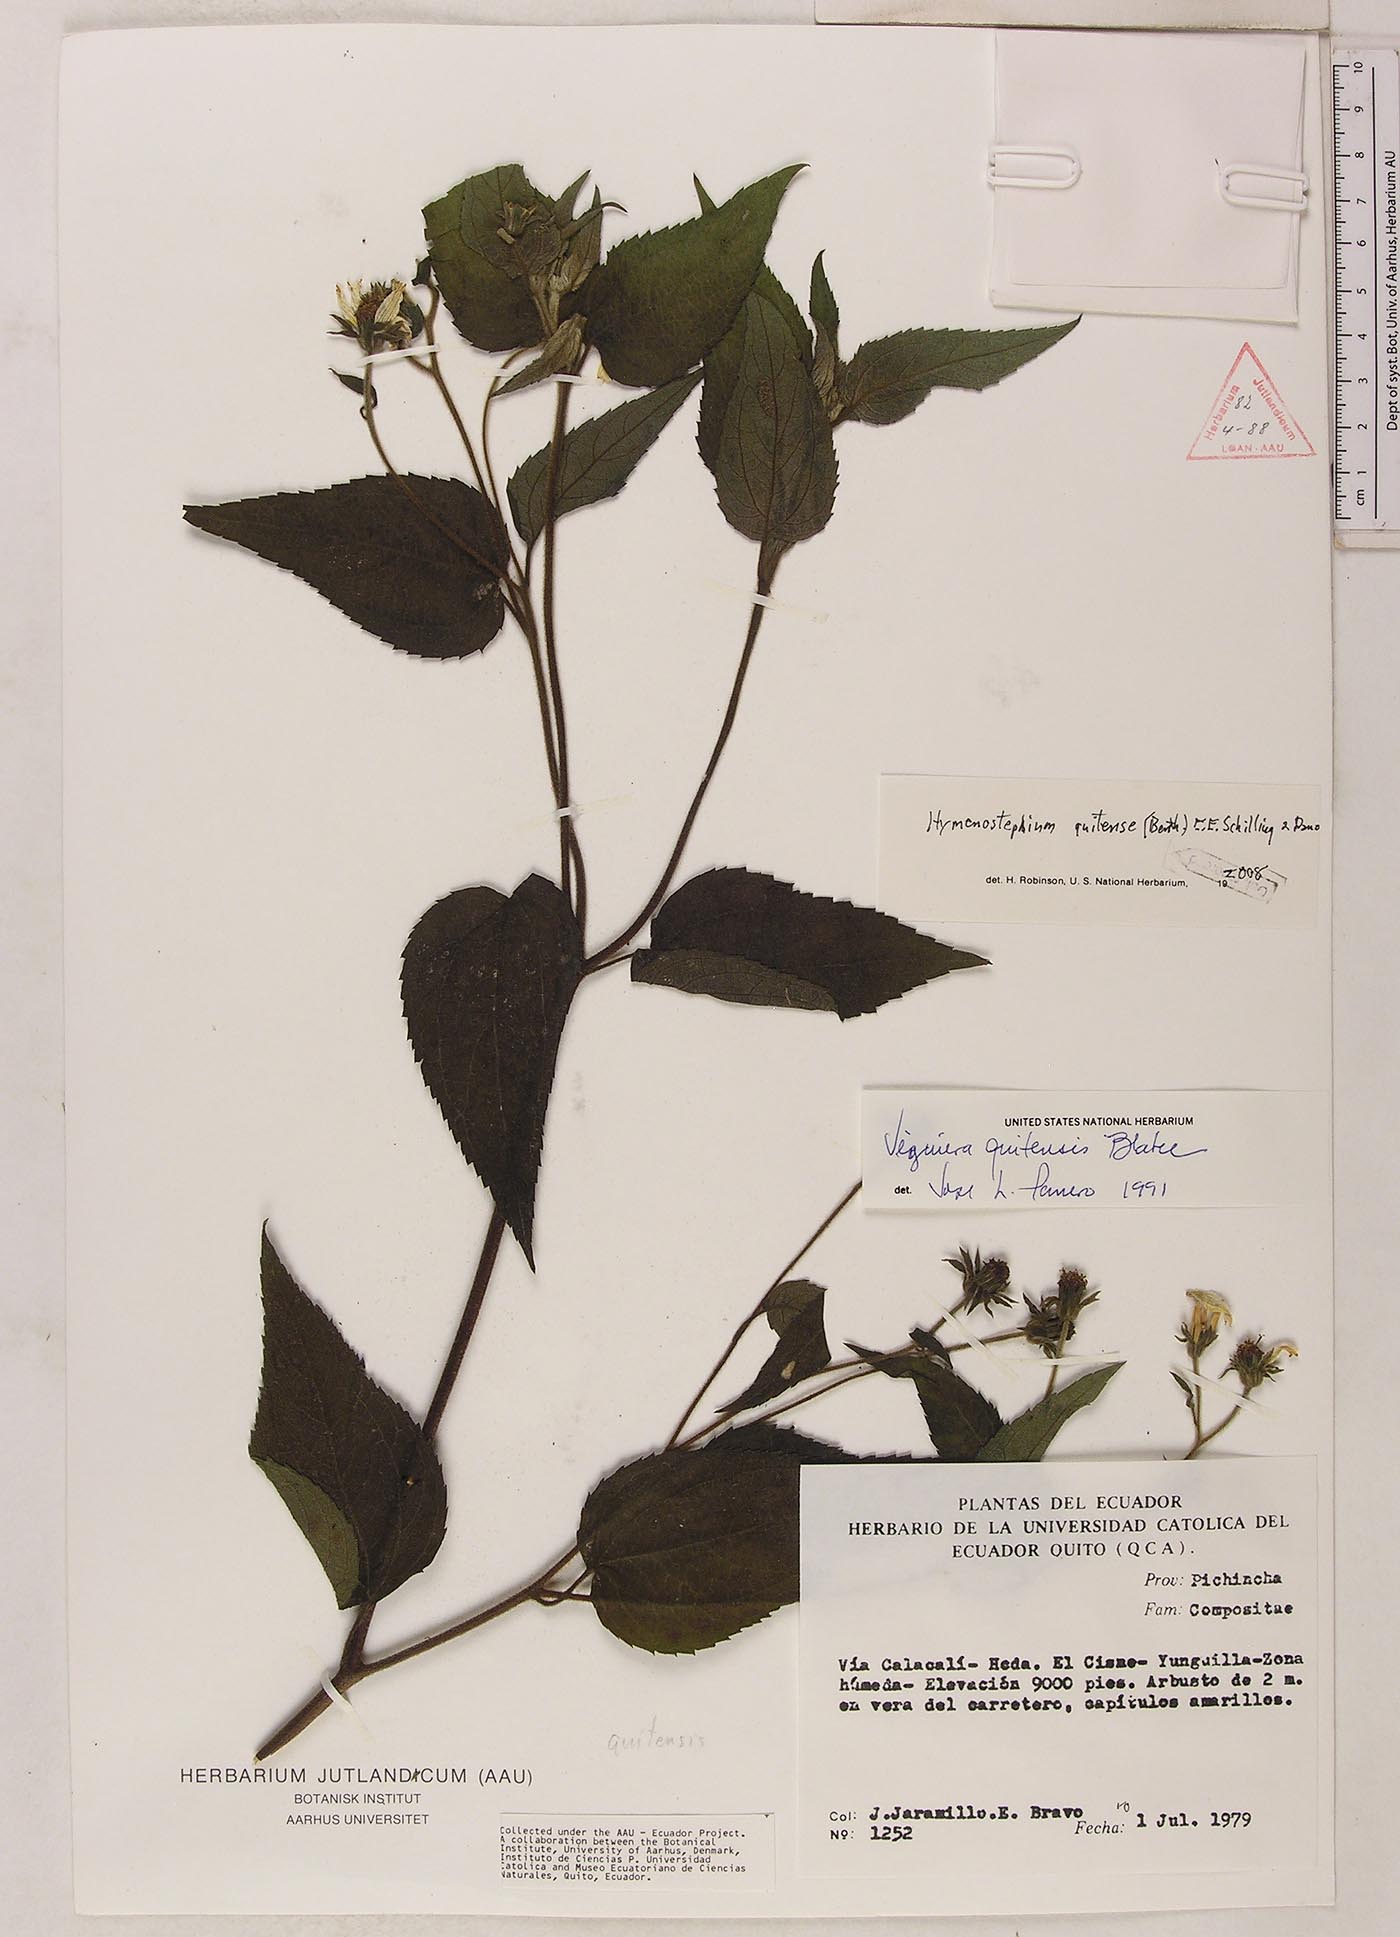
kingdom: Plantae
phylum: Tracheophyta
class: Magnoliopsida
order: Asterales
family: Asteraceae
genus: Hymenostephium
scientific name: Hymenostephium quitensis
